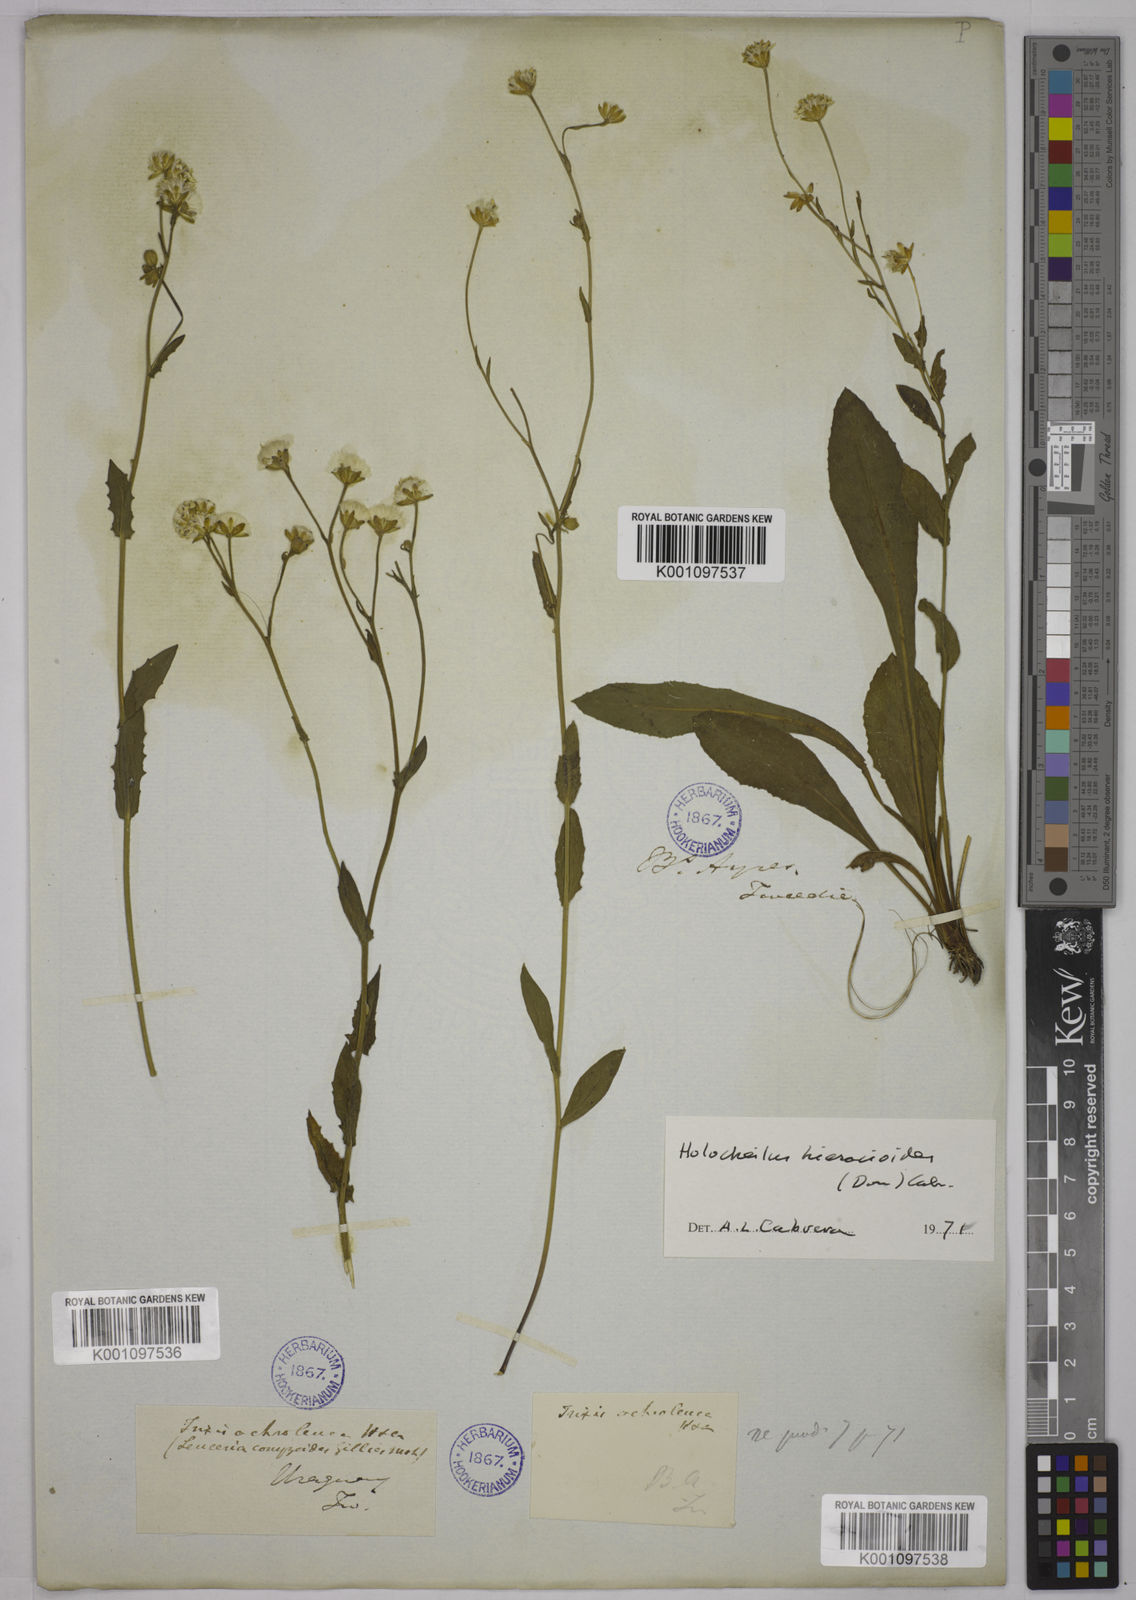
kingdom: Plantae
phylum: Tracheophyta
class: Magnoliopsida
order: Asterales
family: Asteraceae
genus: Holocheilus
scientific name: Holocheilus hieracioides
